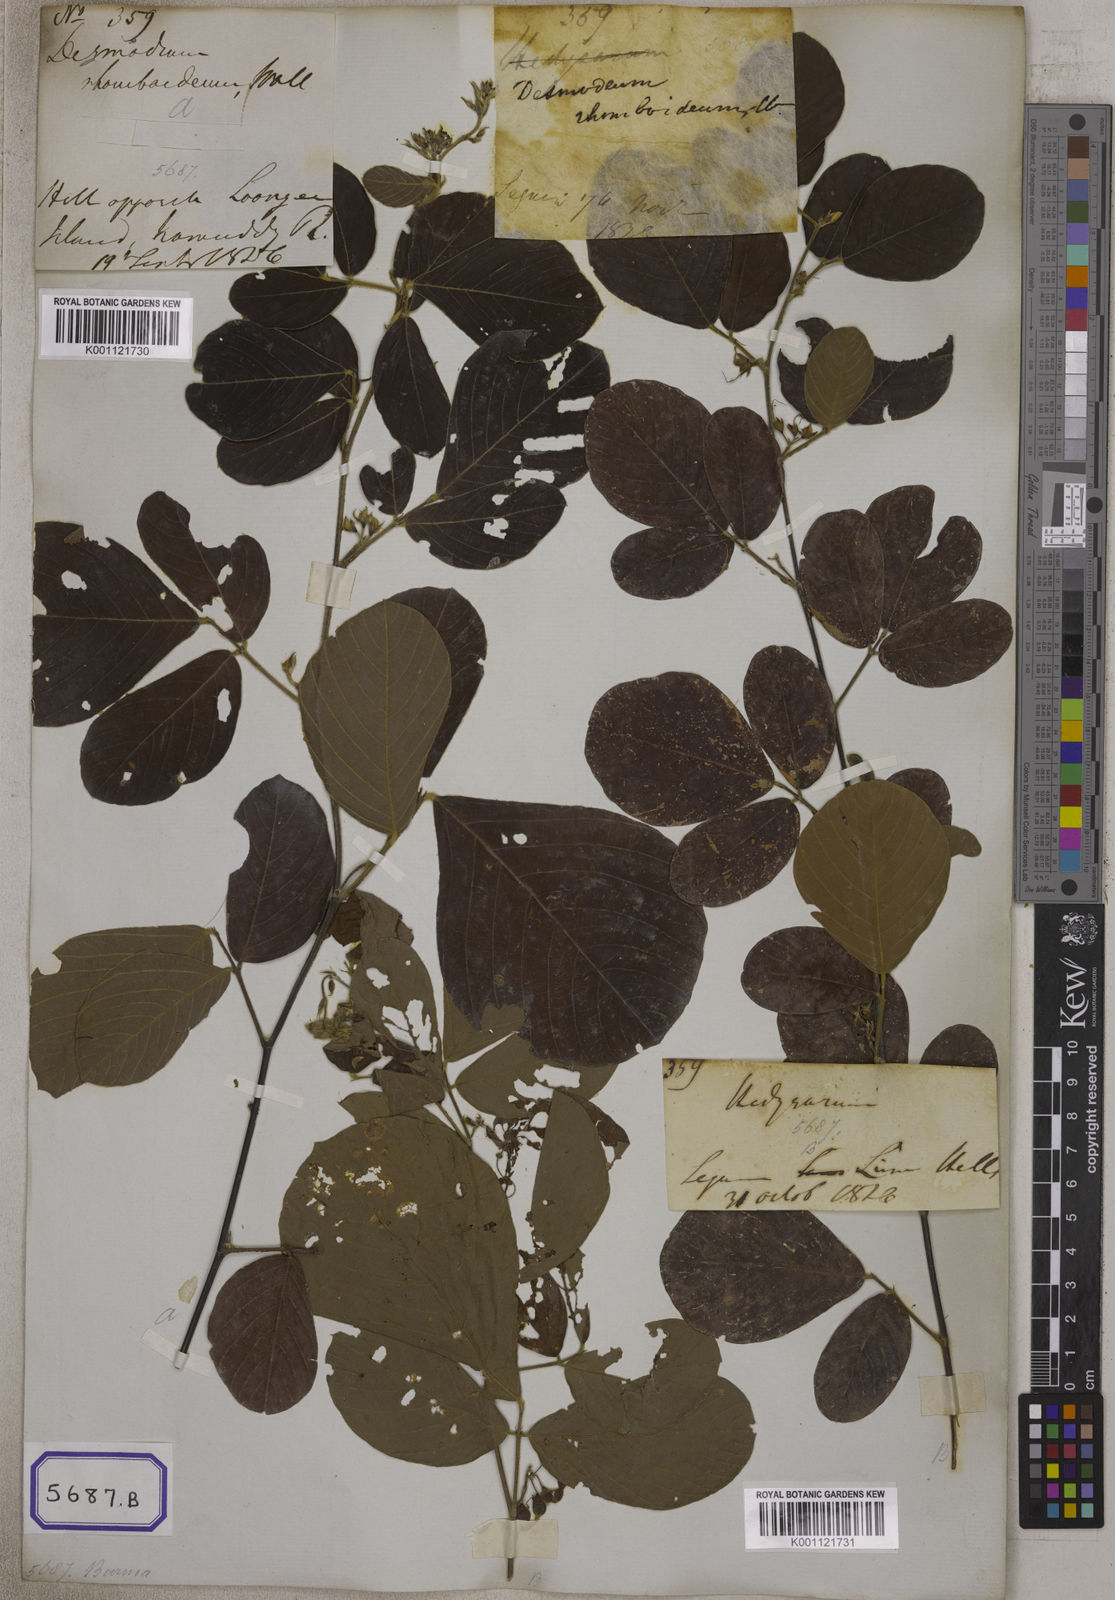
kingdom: Plantae
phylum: Tracheophyta
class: Magnoliopsida
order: Fabales
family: Fabaceae
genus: Dendrolobium
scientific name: Dendrolobium umbellatum
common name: Horsebush
